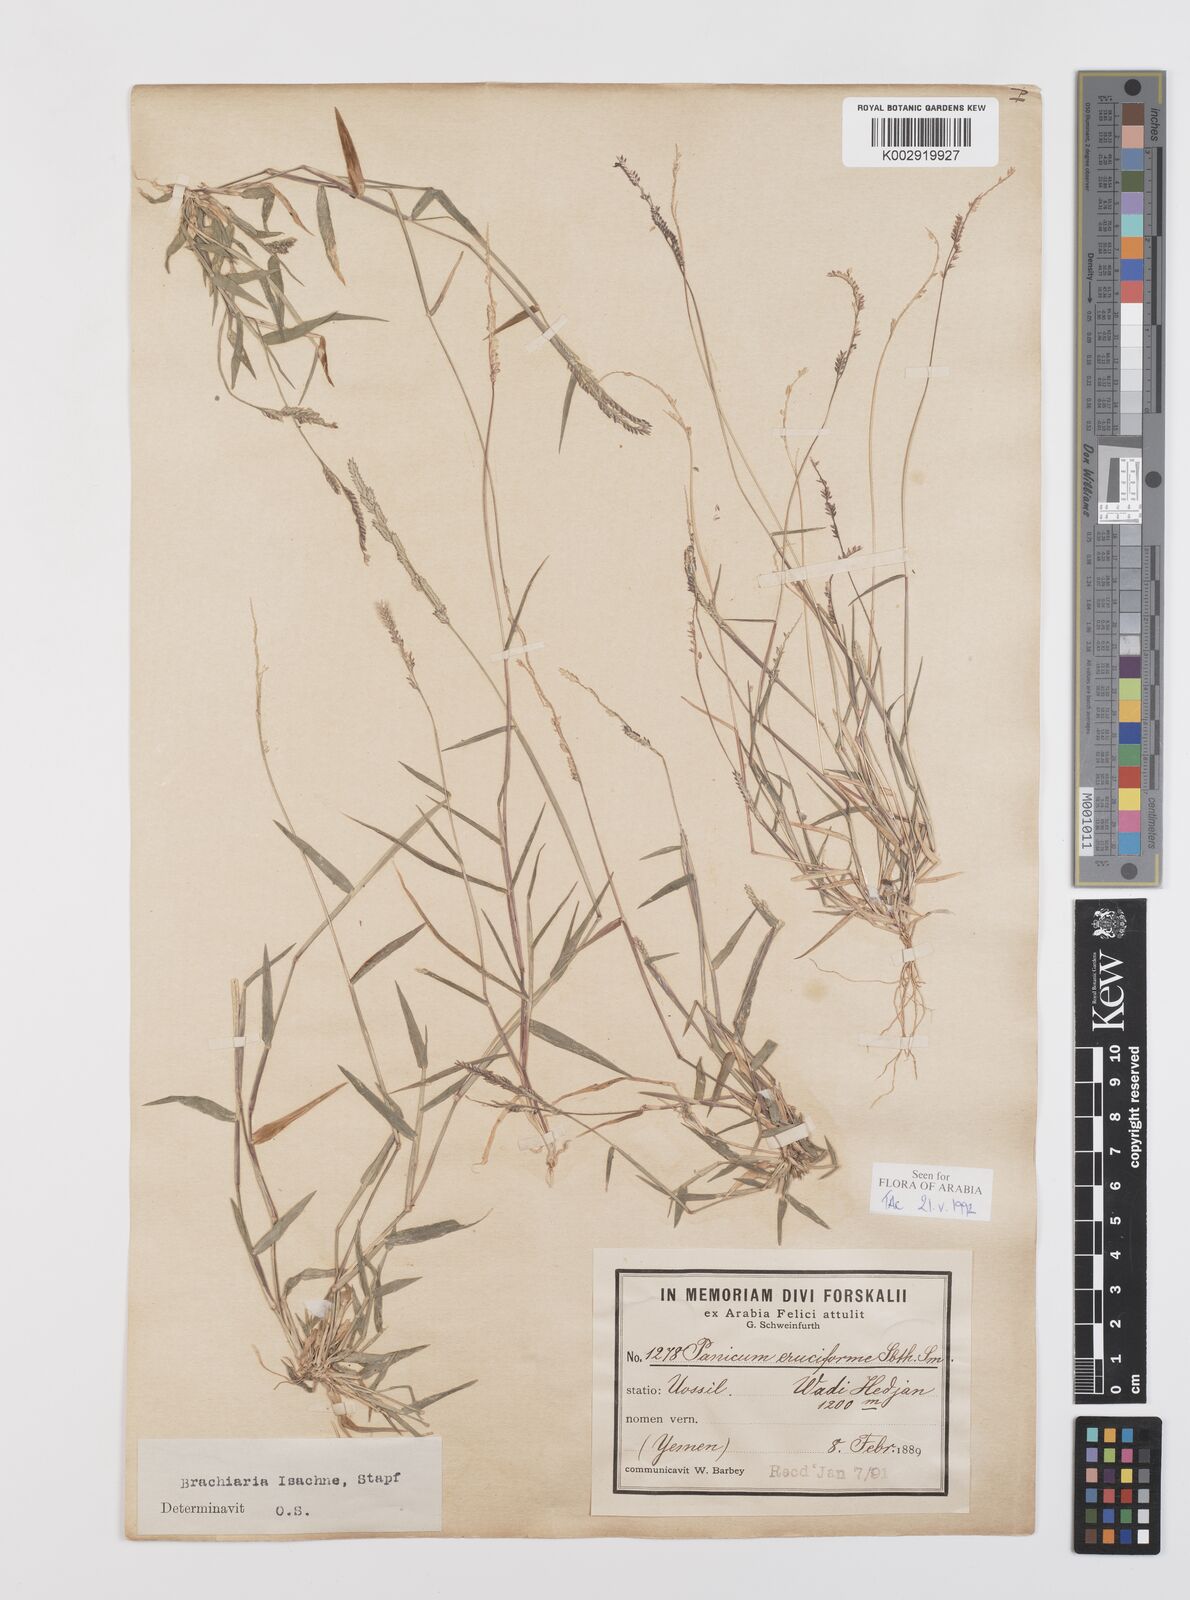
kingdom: Plantae
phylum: Tracheophyta
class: Liliopsida
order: Poales
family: Poaceae
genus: Moorochloa
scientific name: Moorochloa eruciformis
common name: Sweet signalgrass
